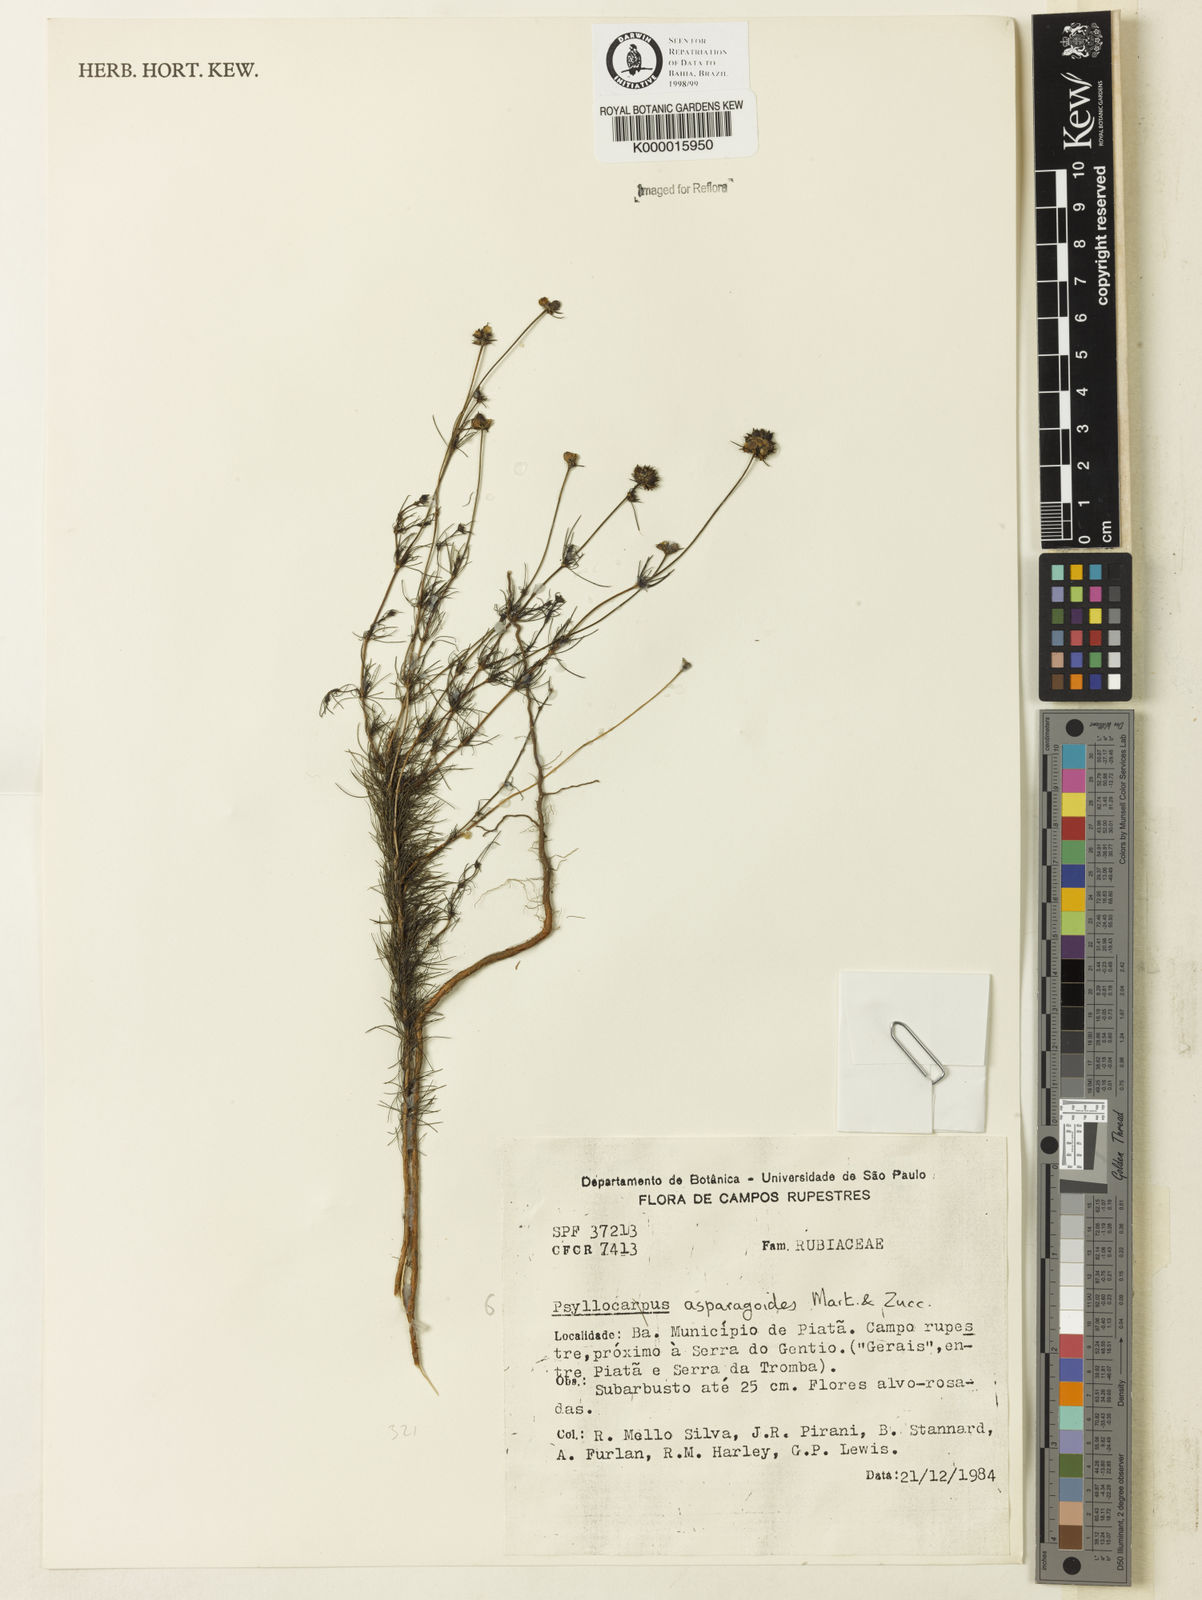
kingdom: Plantae
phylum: Tracheophyta
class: Magnoliopsida
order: Gentianales
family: Rubiaceae
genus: Psyllocarpus
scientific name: Psyllocarpus asparagoides
